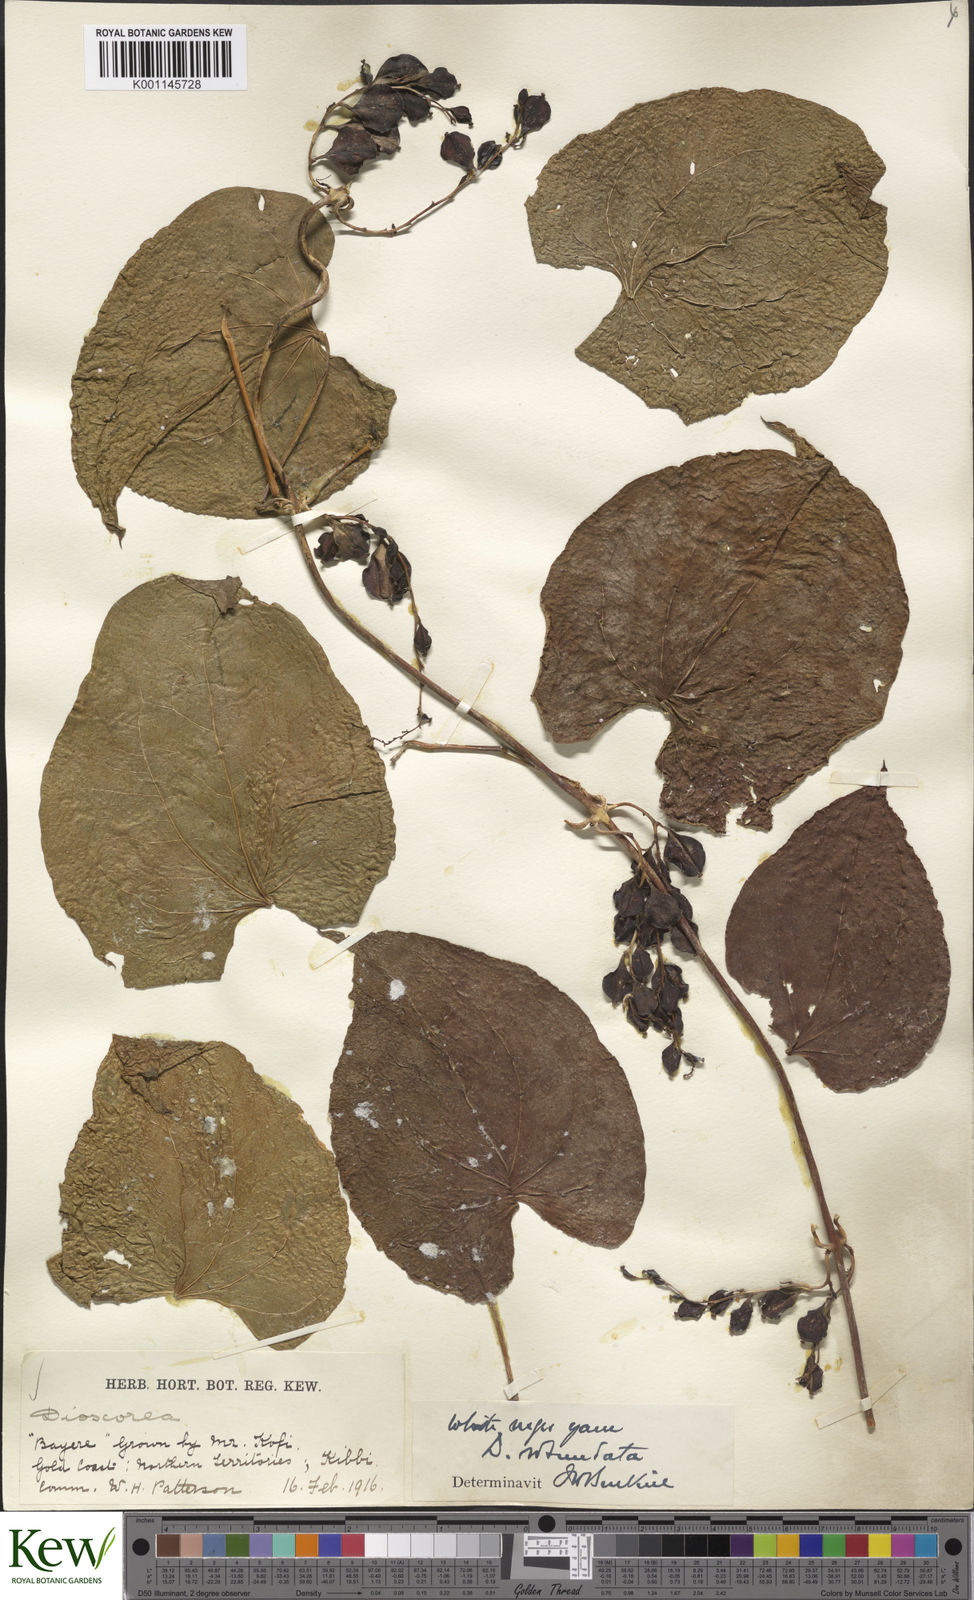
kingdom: Plantae
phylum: Tracheophyta
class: Liliopsida
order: Dioscoreales
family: Dioscoreaceae
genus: Dioscorea
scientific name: Dioscorea cayenensis
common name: Attoto yam
